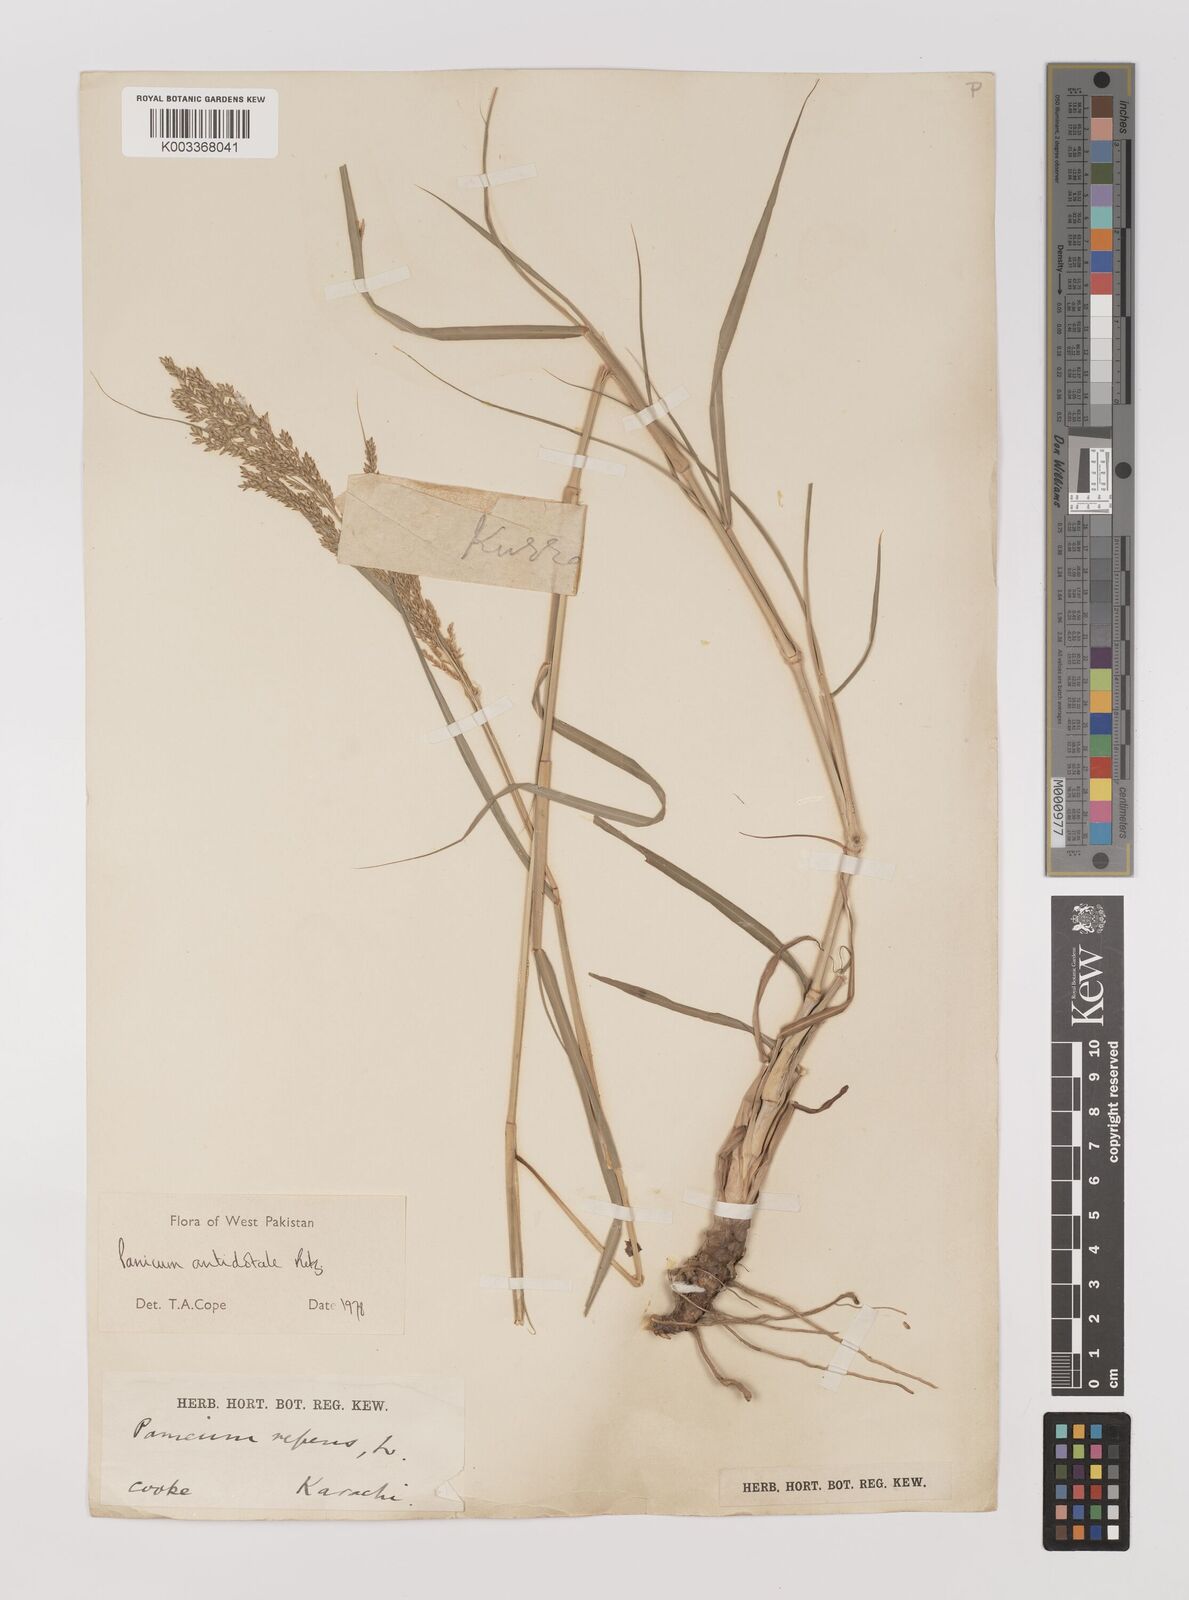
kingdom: Plantae
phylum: Tracheophyta
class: Liliopsida
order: Poales
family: Poaceae
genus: Panicum
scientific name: Panicum antidotale
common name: Blue panicum
